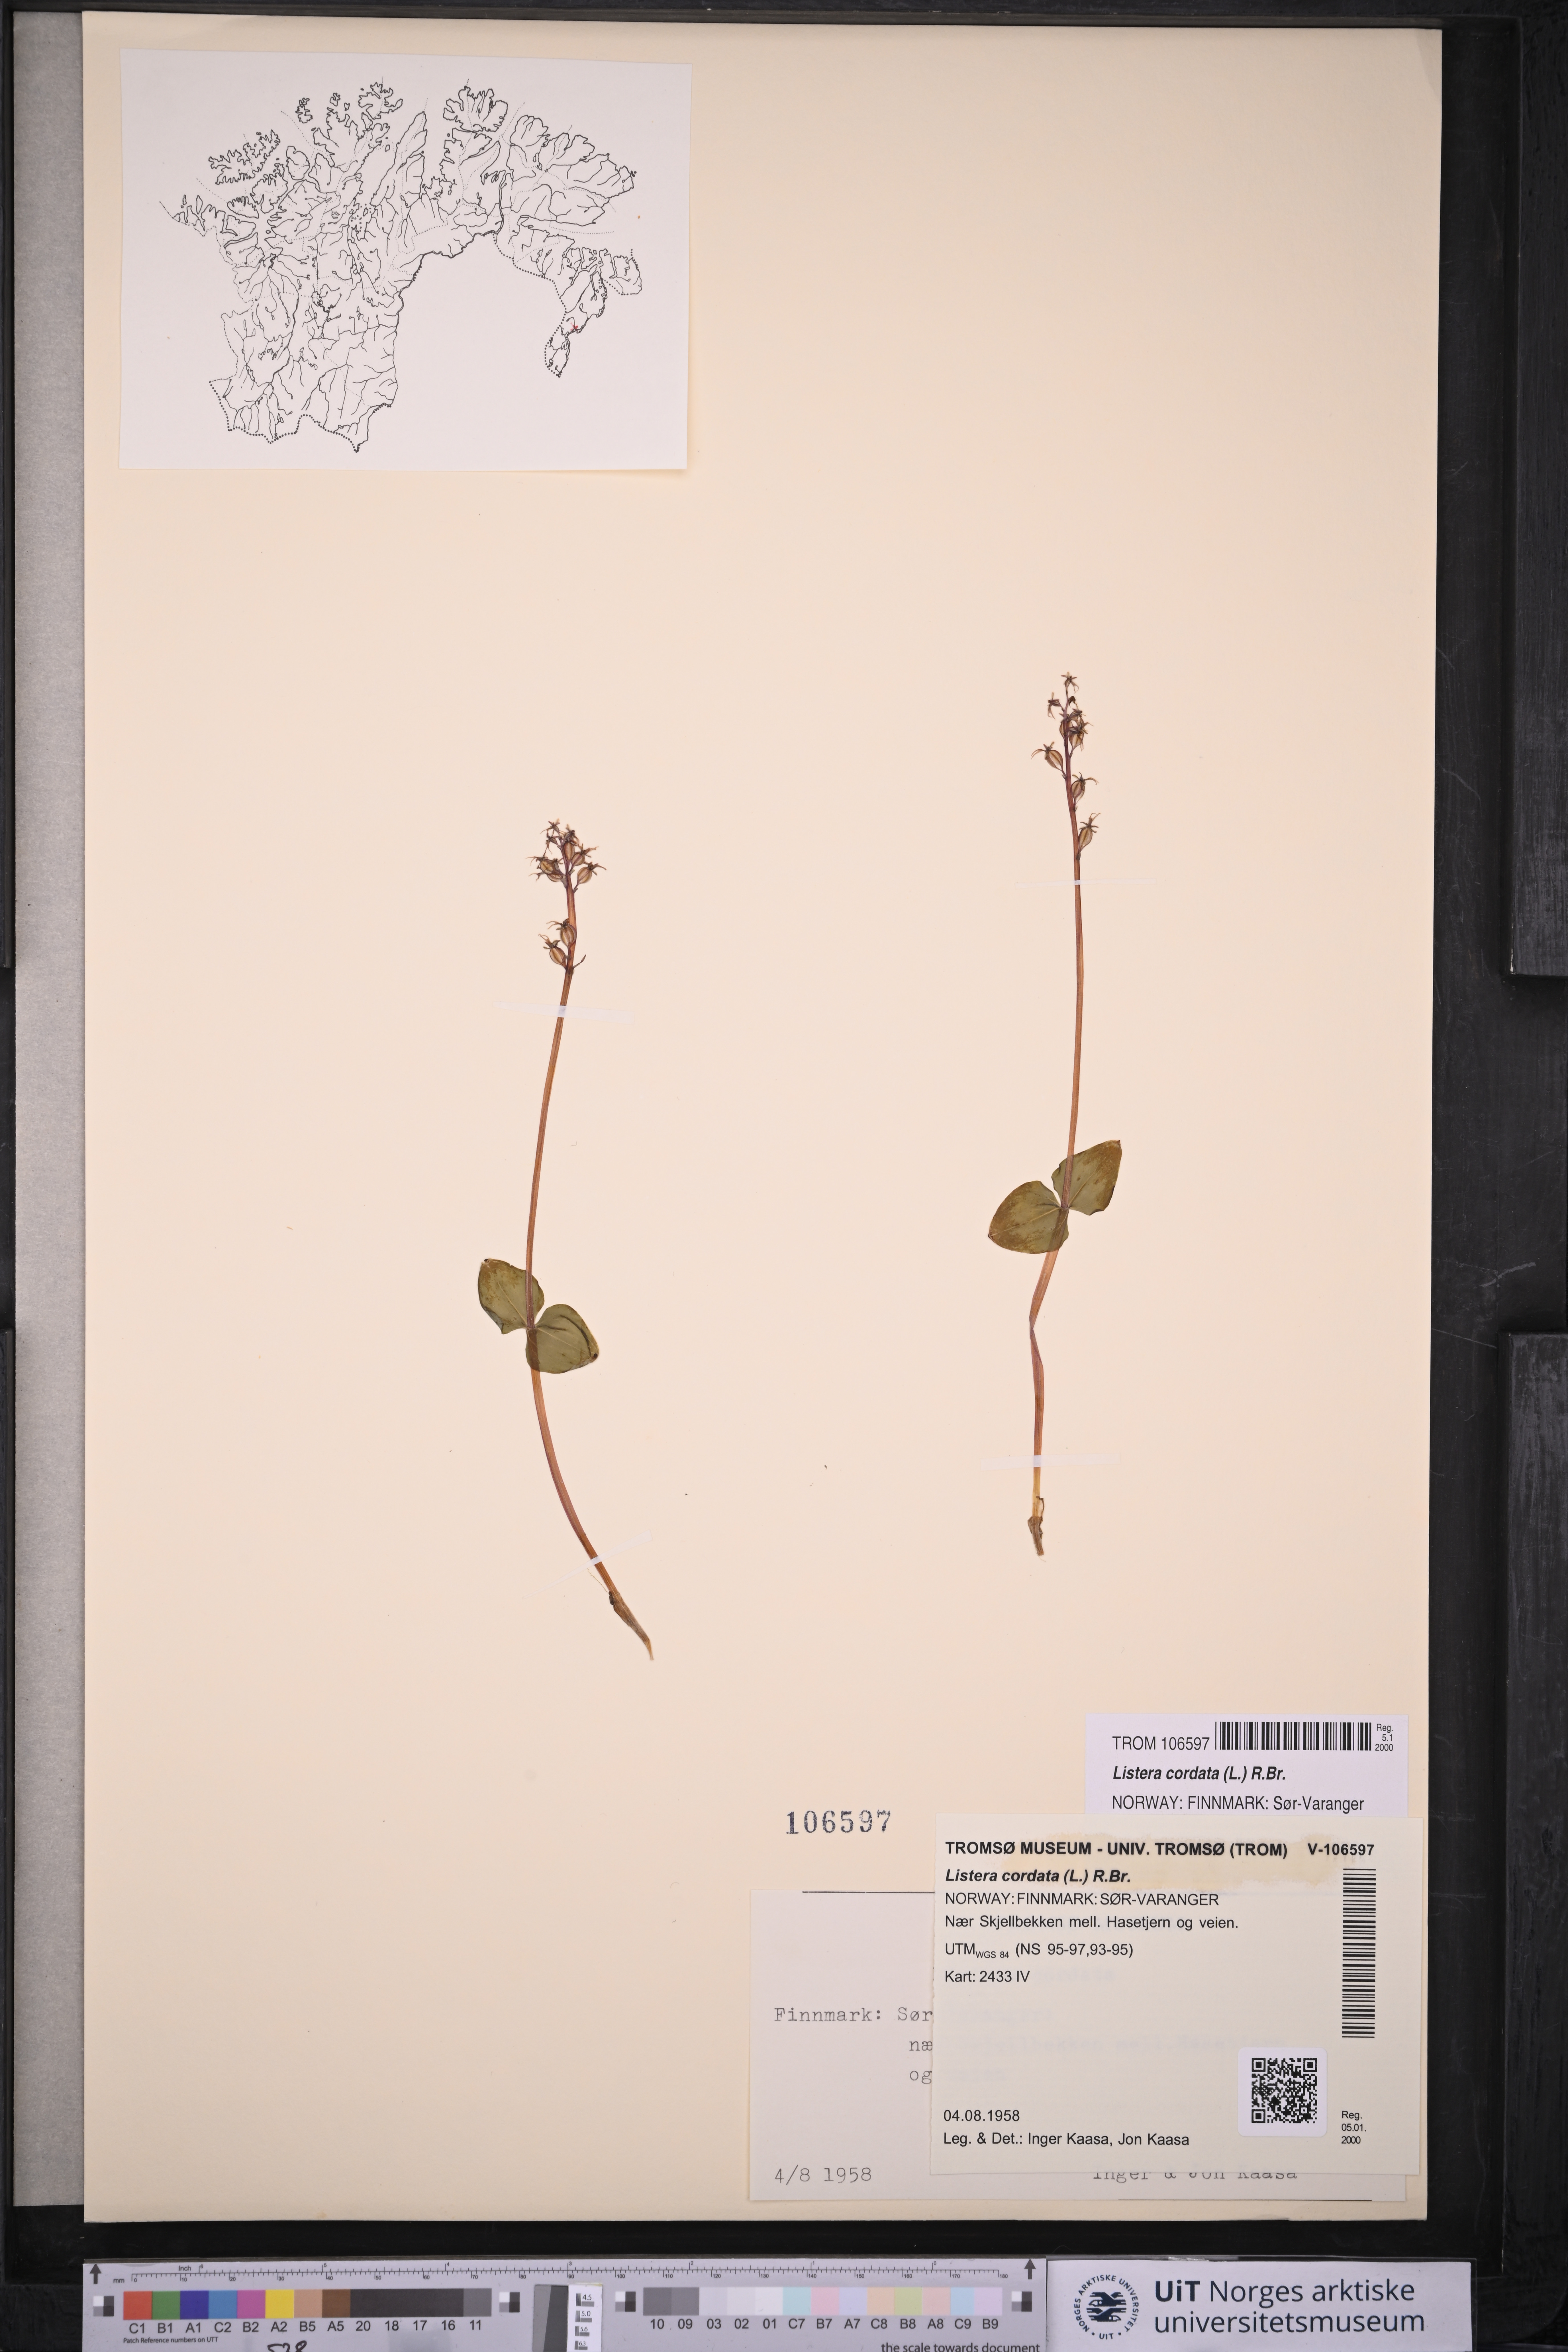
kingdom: Plantae
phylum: Tracheophyta
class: Liliopsida
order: Asparagales
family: Orchidaceae
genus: Neottia
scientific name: Neottia cordata
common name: Lesser twayblade
